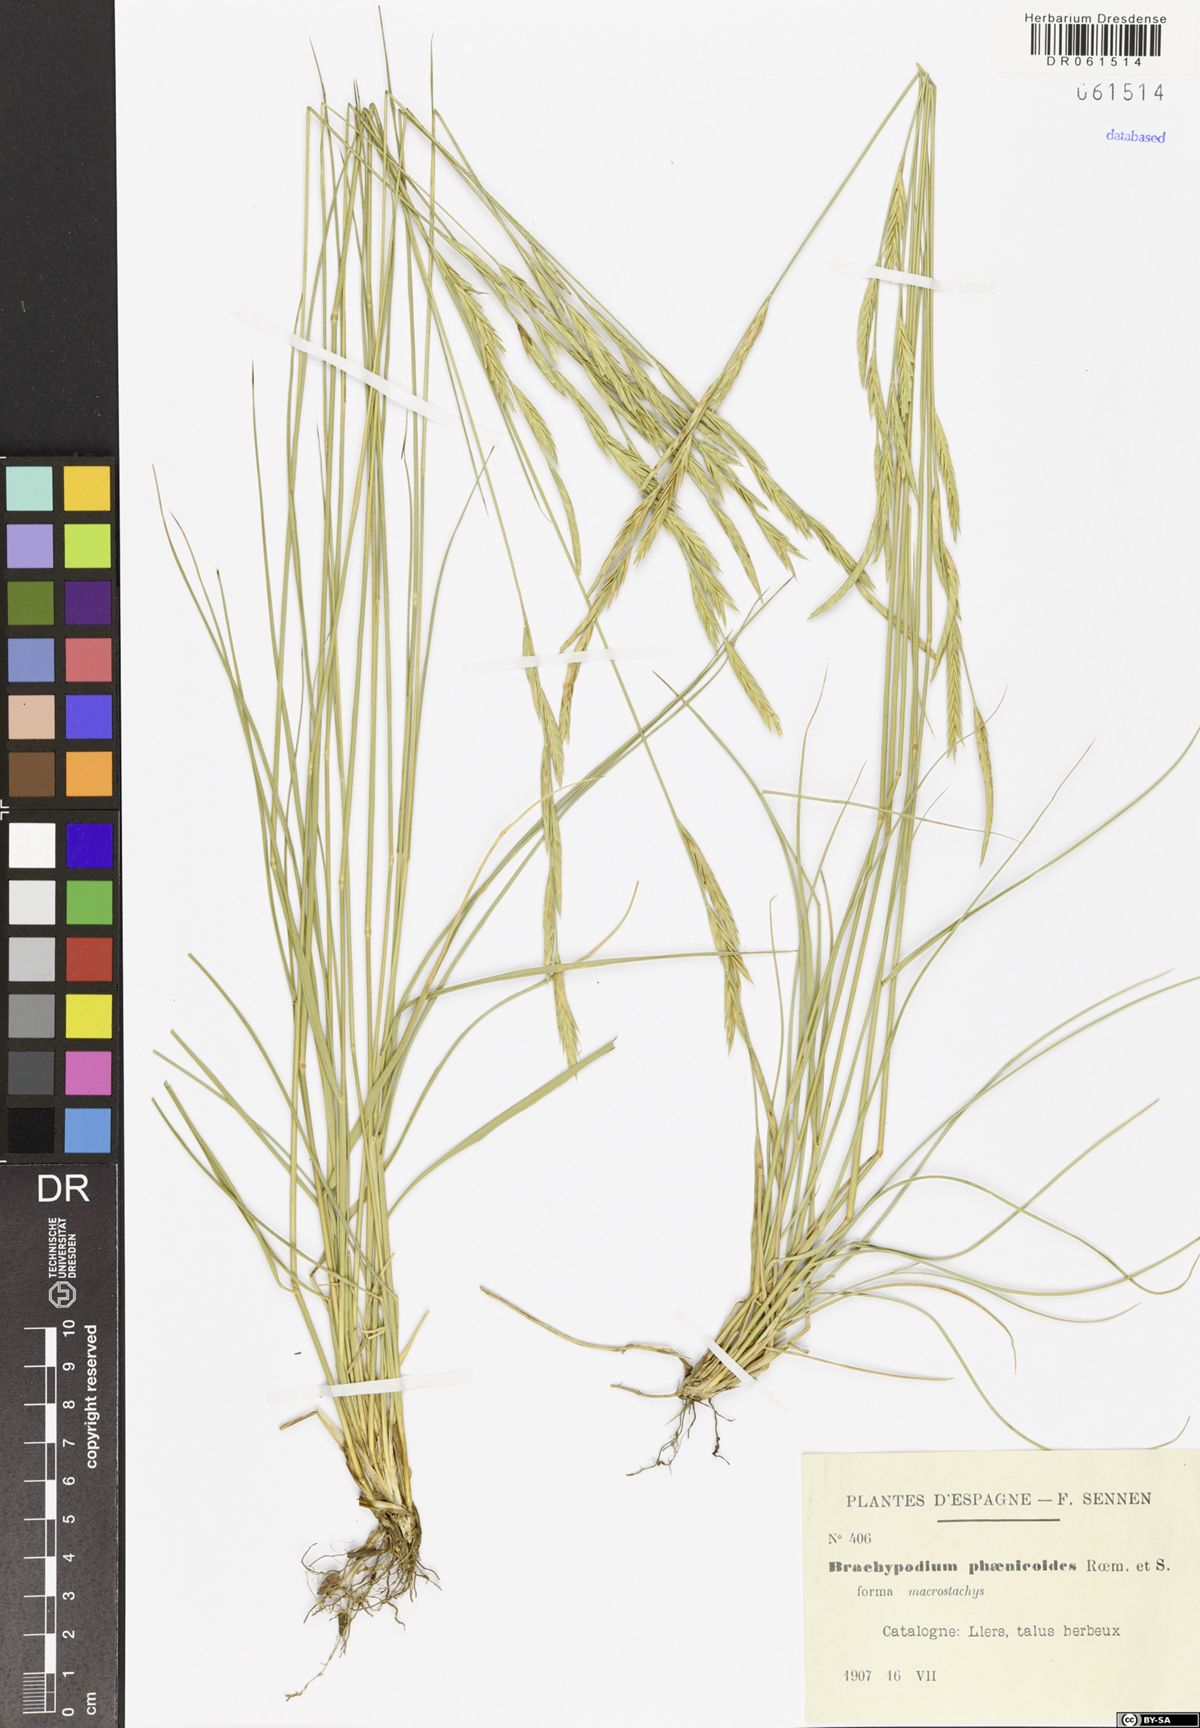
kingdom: Plantae
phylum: Tracheophyta
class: Liliopsida
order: Poales
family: Poaceae
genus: Brachypodium
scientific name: Brachypodium phoenicoides
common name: Thinleaf false brome
